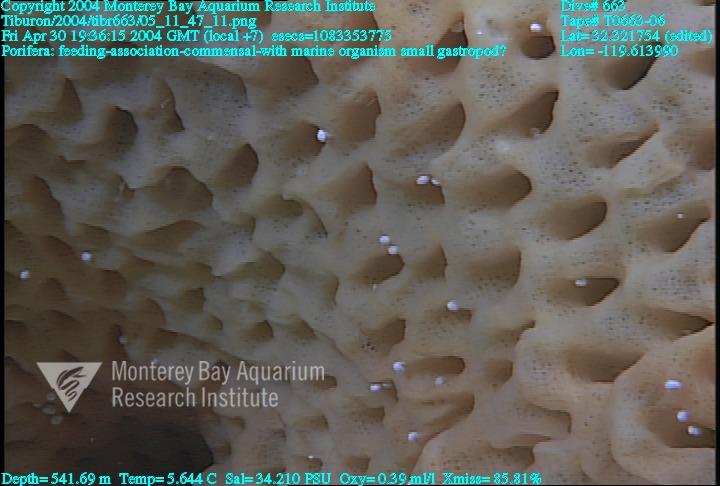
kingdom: Animalia
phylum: Porifera
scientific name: Porifera
